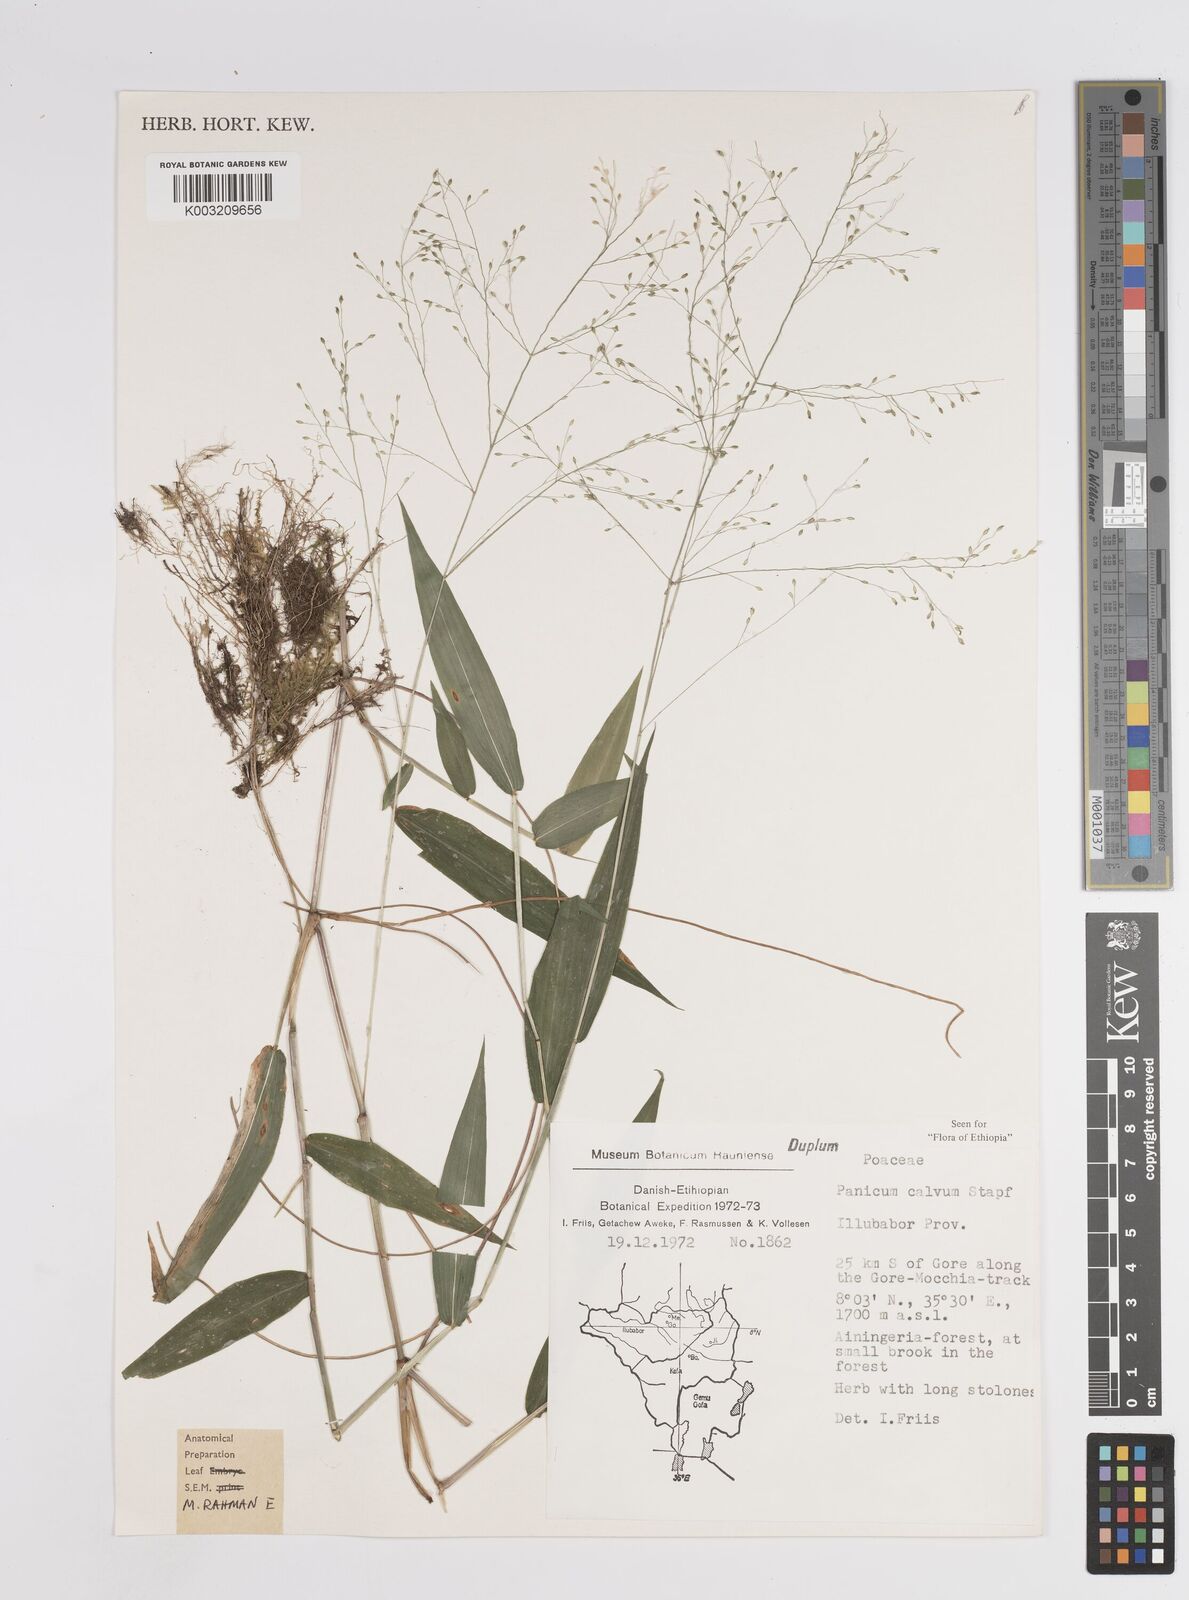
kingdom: Plantae
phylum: Tracheophyta
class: Liliopsida
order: Poales
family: Poaceae
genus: Panicum
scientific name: Panicum calvum
